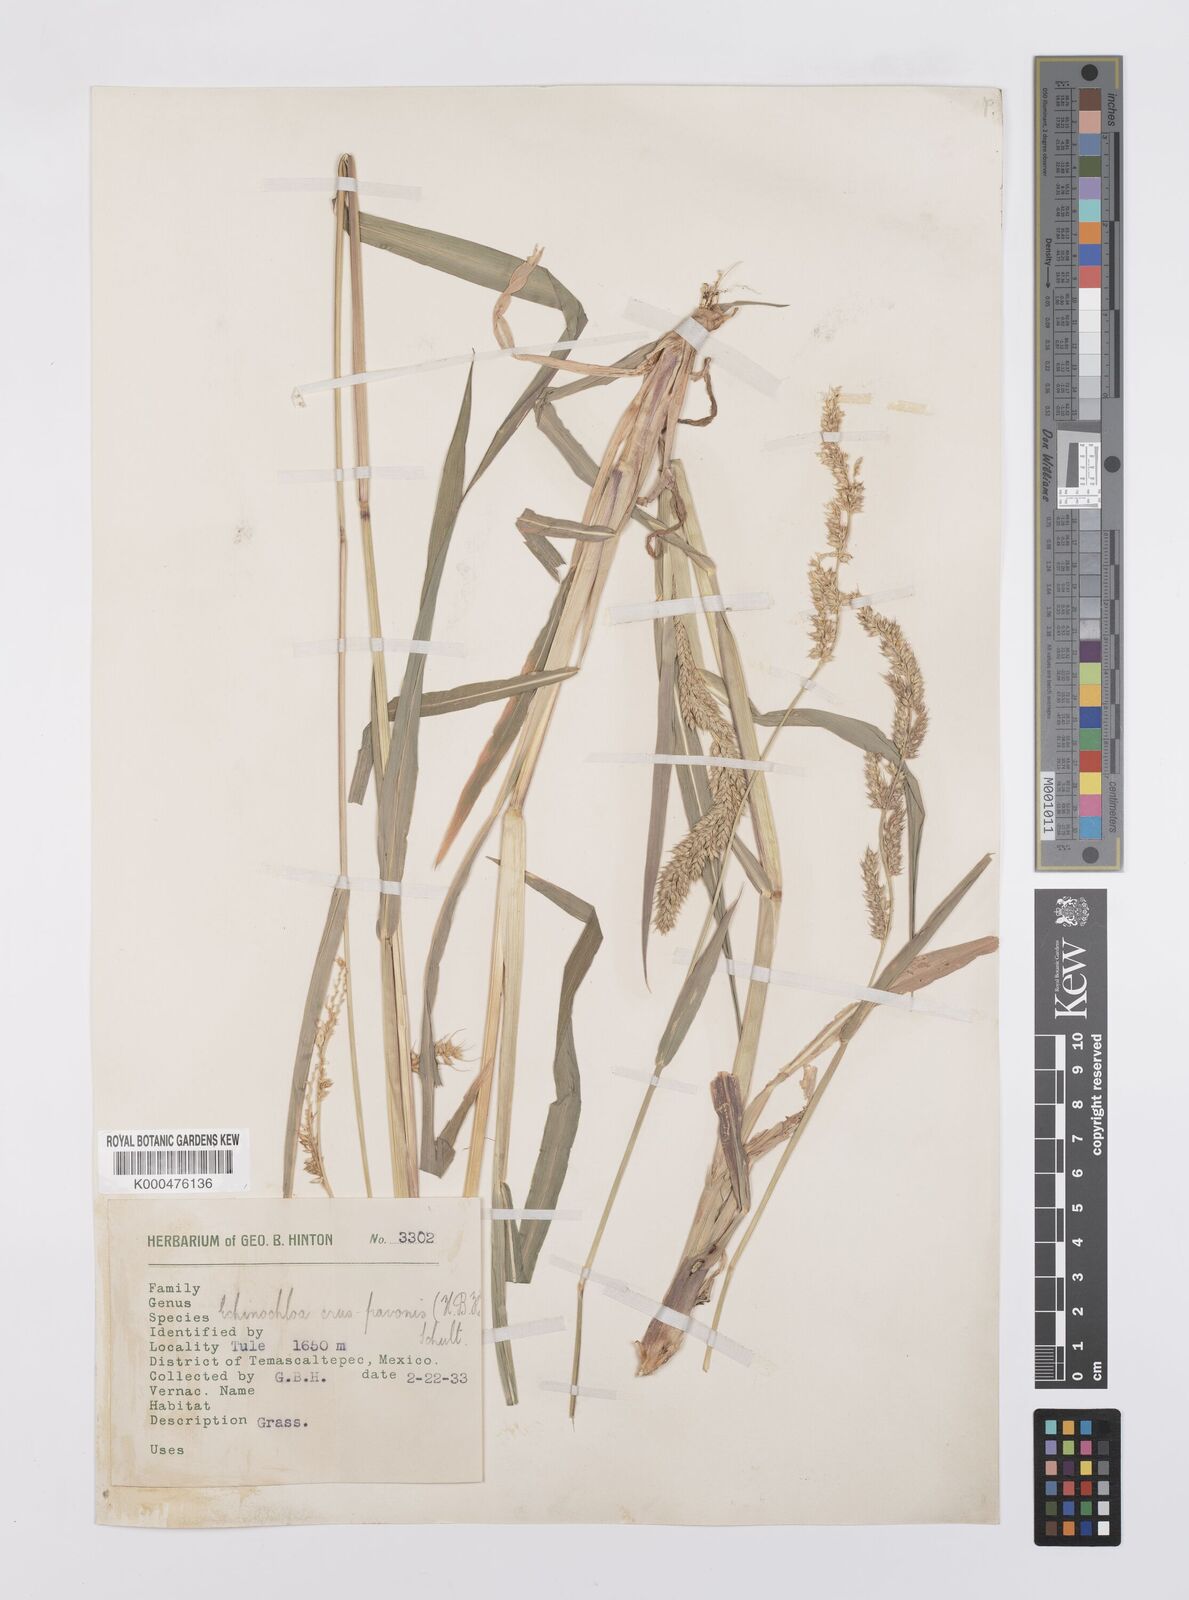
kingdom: Plantae
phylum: Tracheophyta
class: Liliopsida
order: Poales
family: Poaceae
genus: Echinochloa
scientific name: Echinochloa crus-pavonis
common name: Gulf cockspur grass
